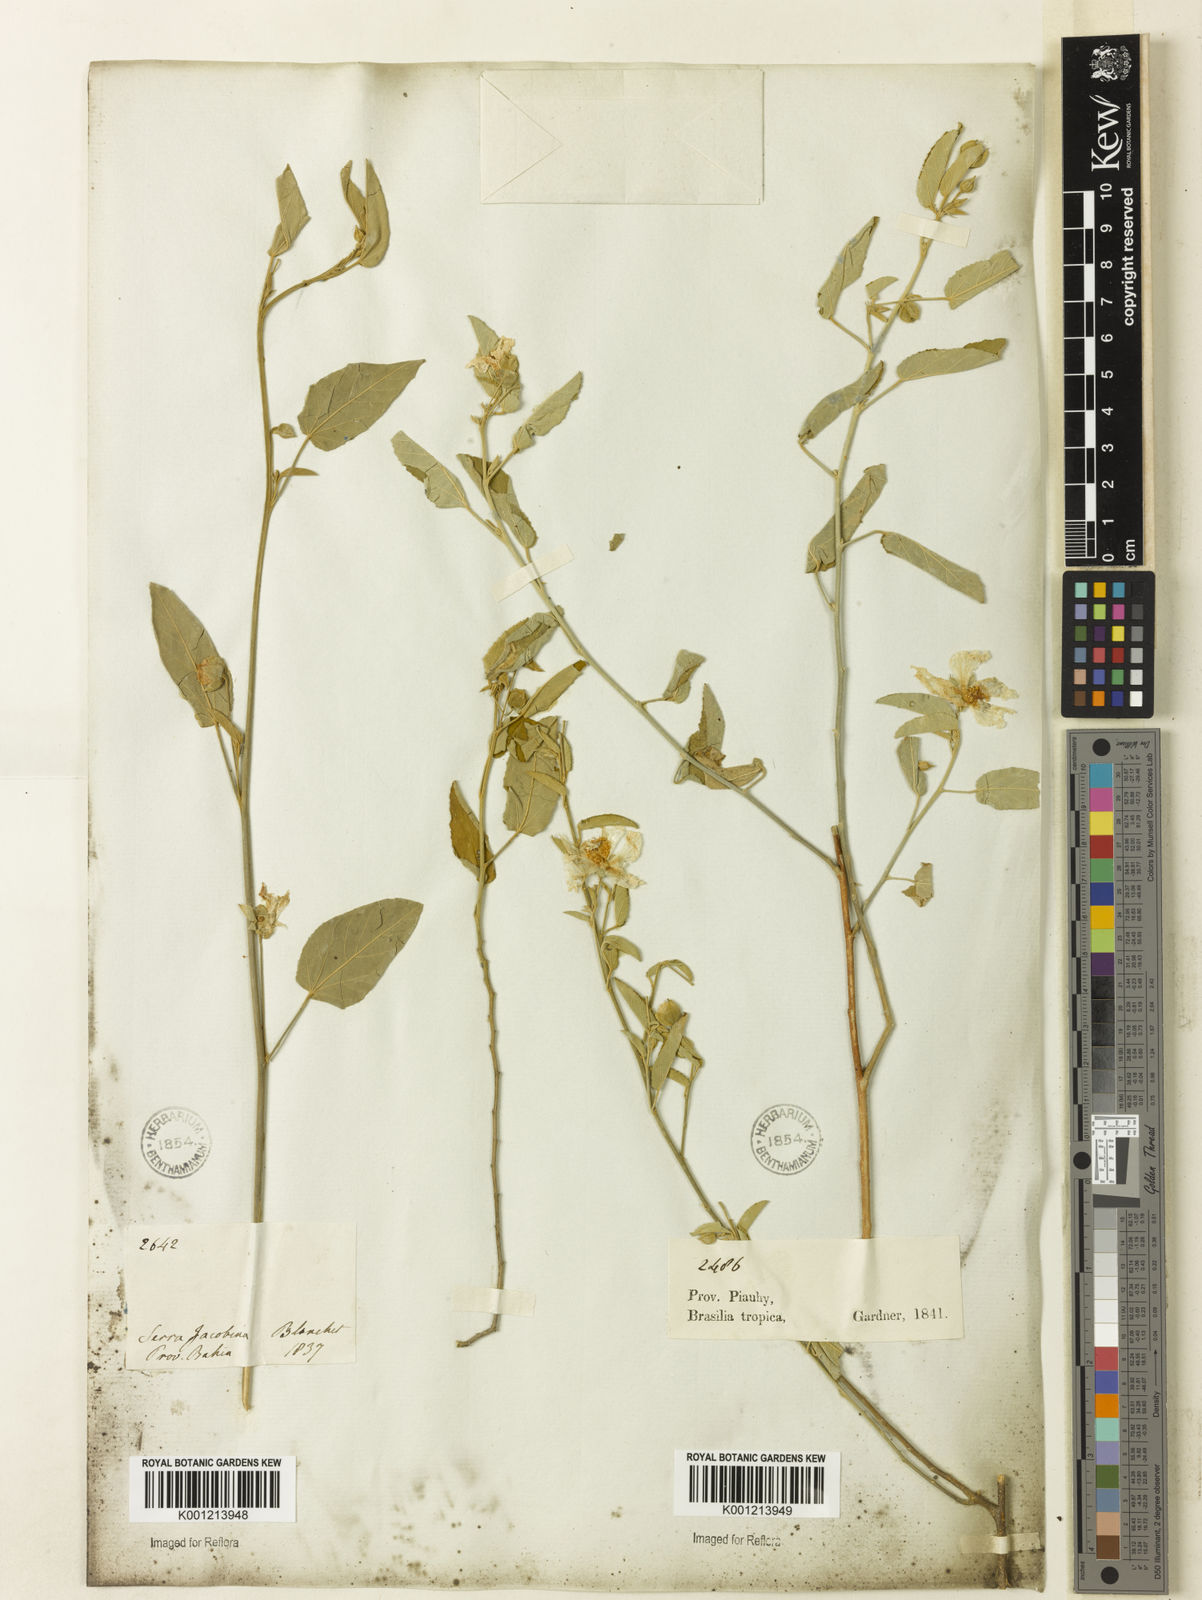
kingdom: Plantae
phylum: Tracheophyta
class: Magnoliopsida
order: Malvales
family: Malvaceae
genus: Gaya
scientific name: Gaya aurea
